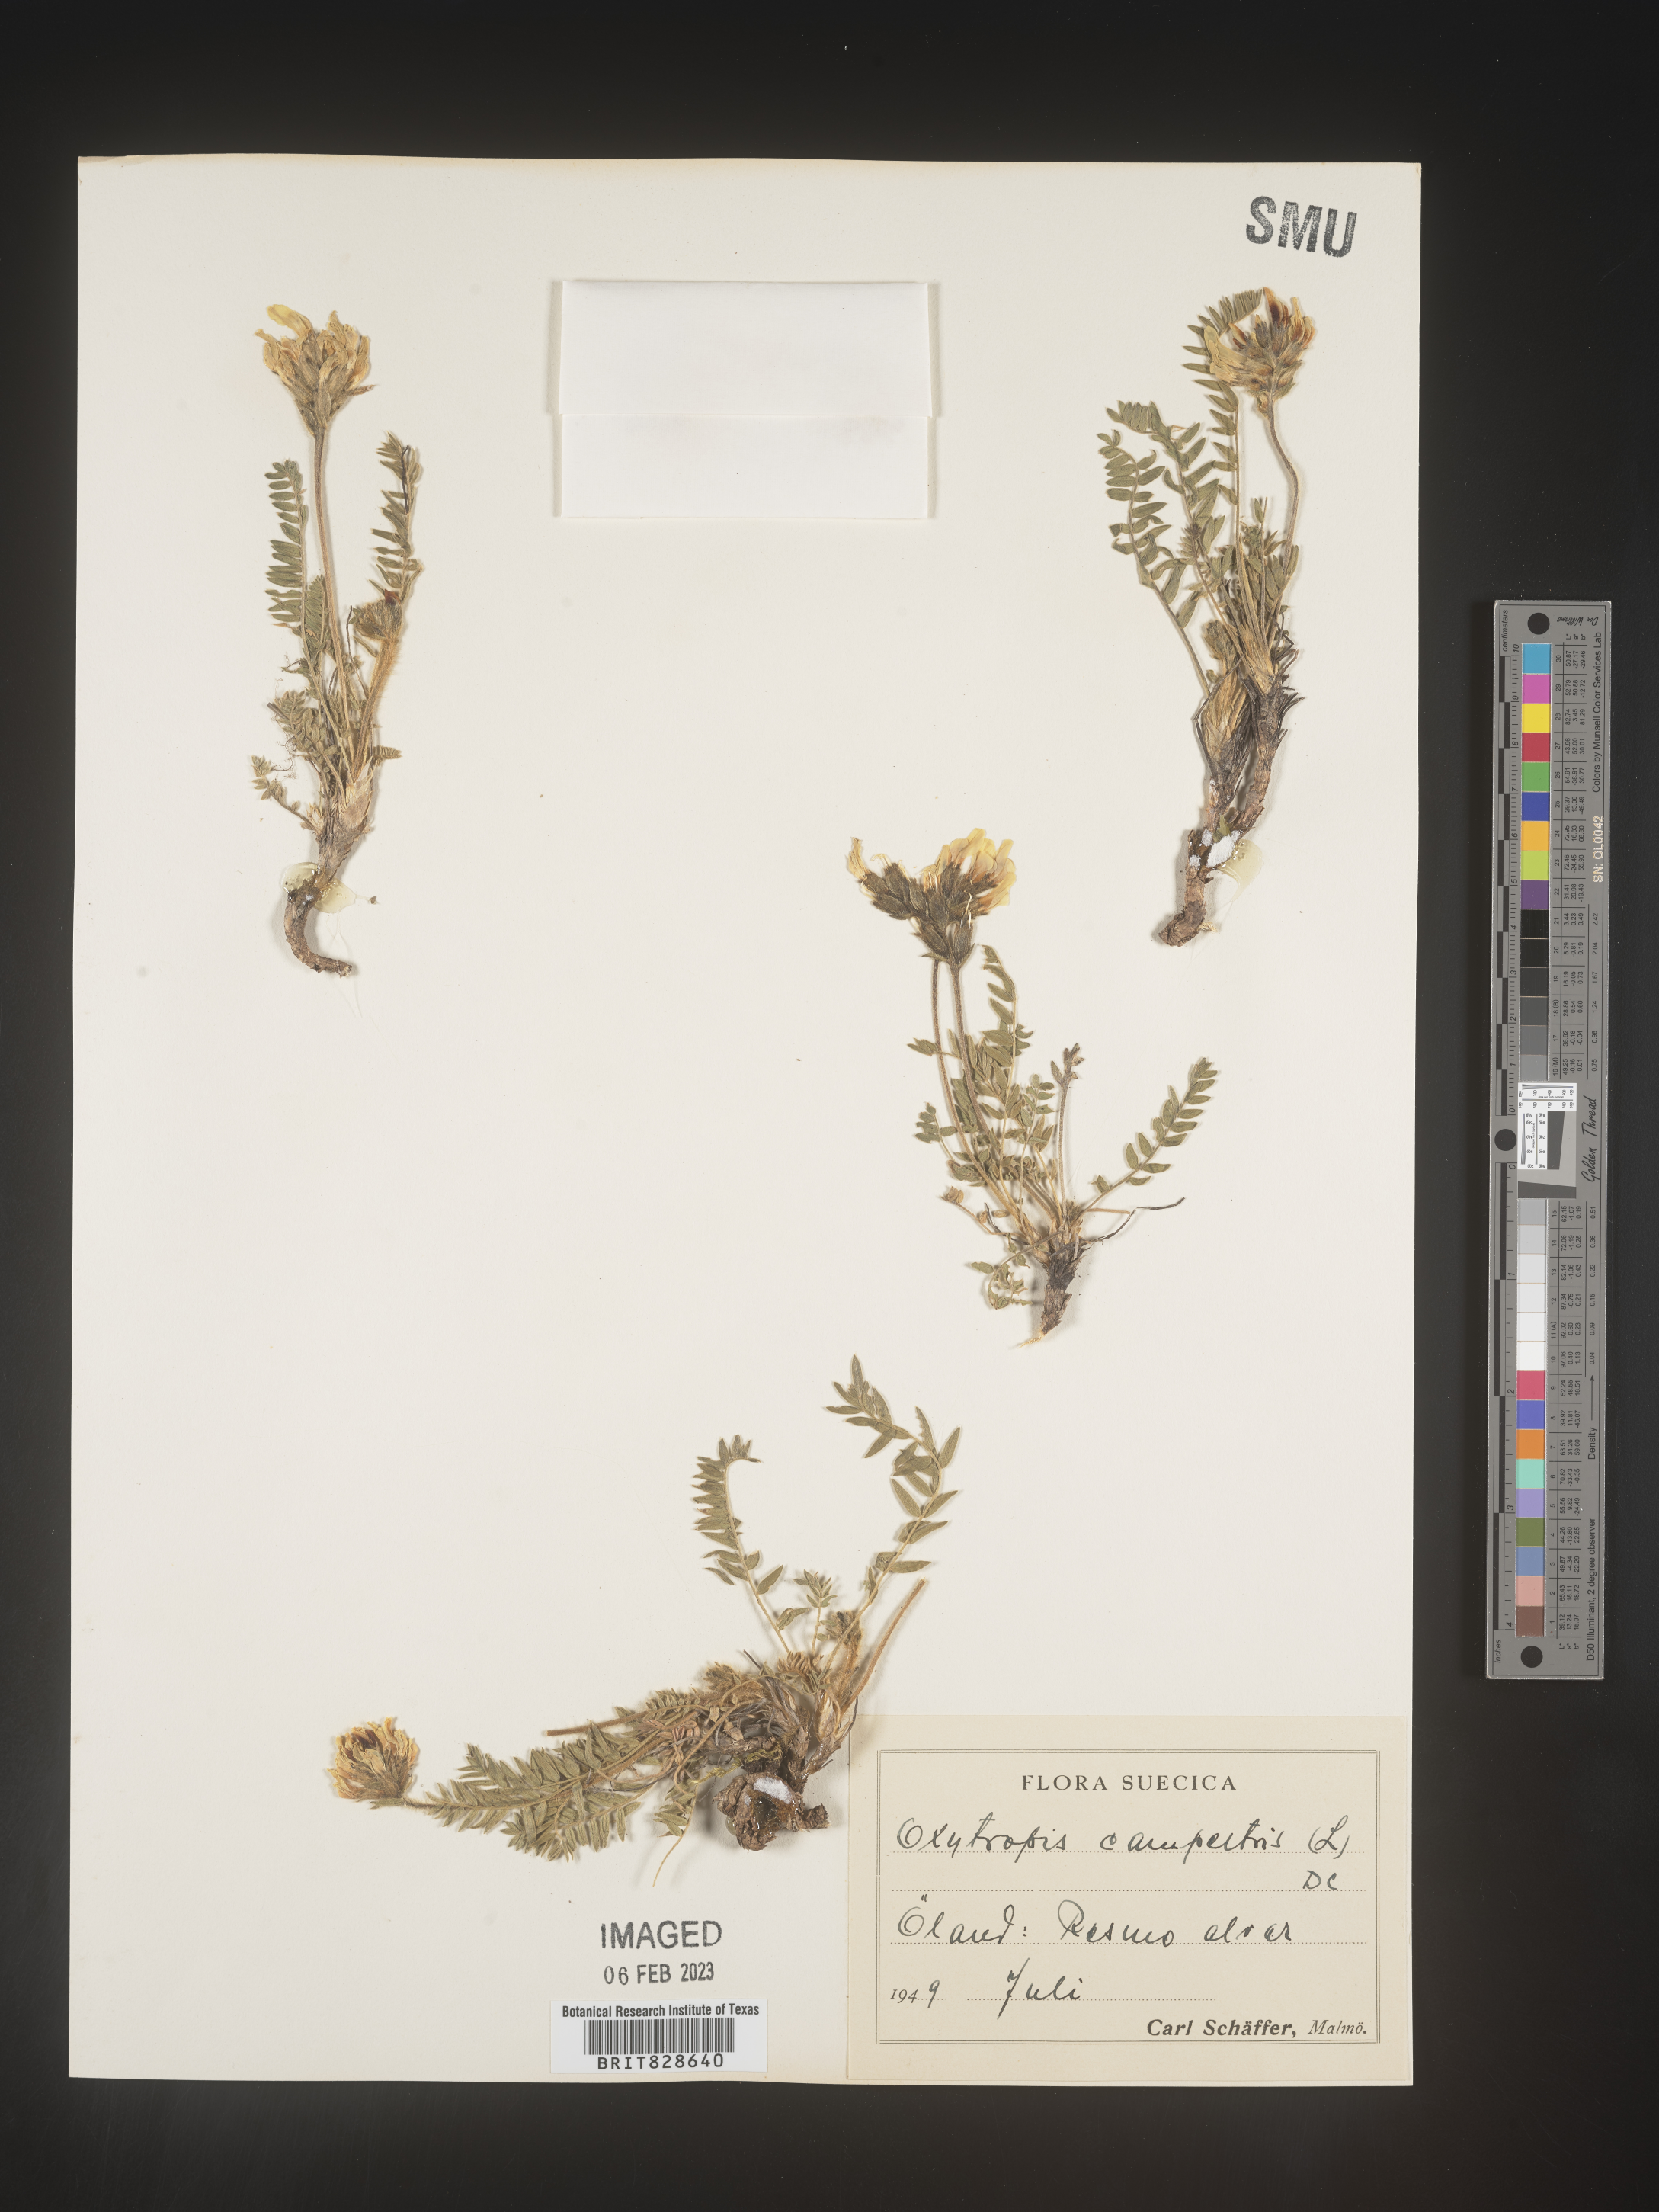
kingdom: Plantae
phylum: Tracheophyta
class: Magnoliopsida
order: Fabales
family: Fabaceae
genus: Oxytropis
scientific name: Oxytropis
